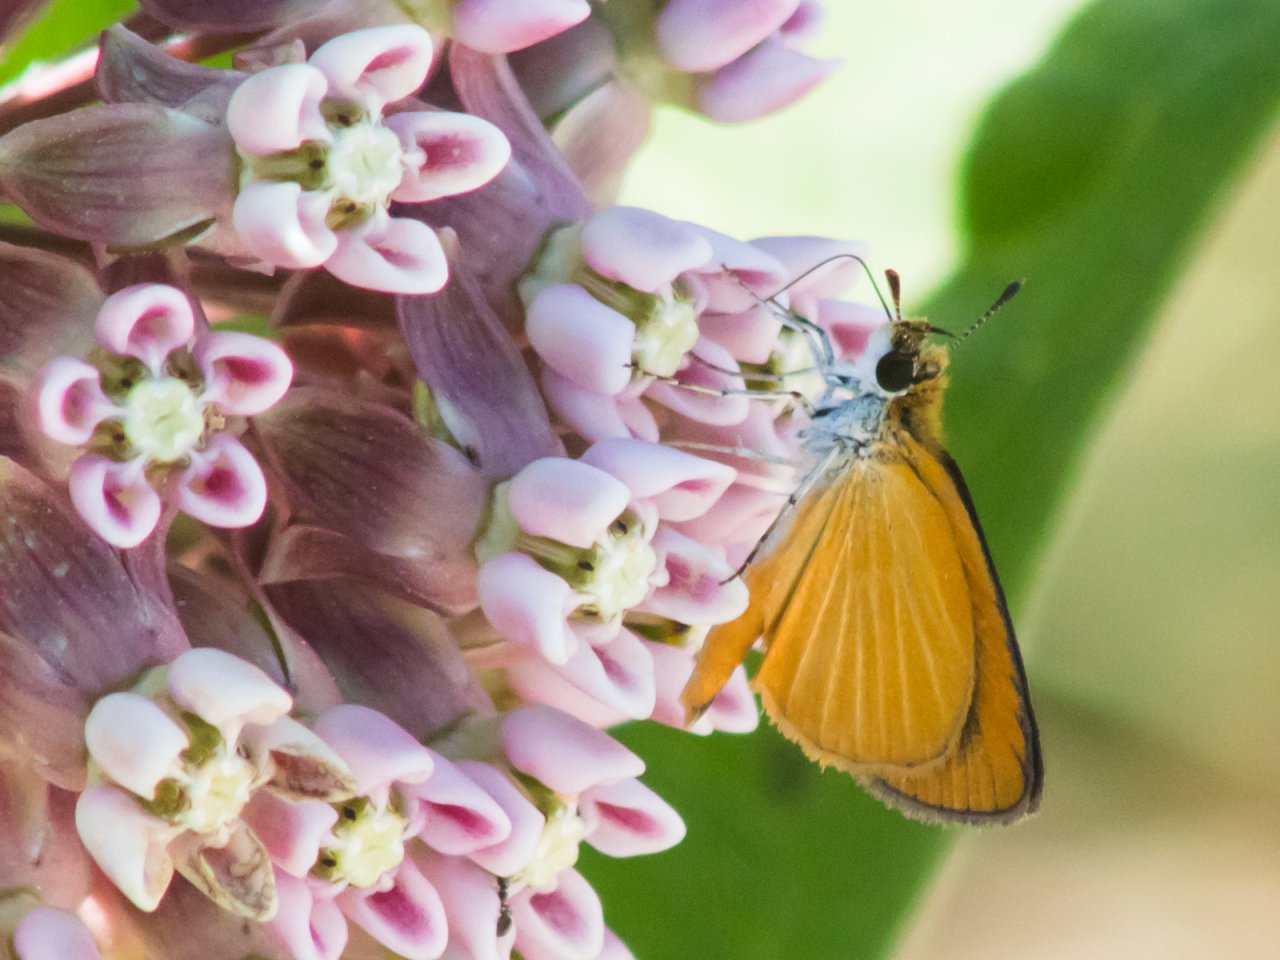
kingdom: Animalia
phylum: Arthropoda
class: Insecta
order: Lepidoptera
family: Hesperiidae
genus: Ancyloxypha
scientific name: Ancyloxypha numitor
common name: Least Skipper
